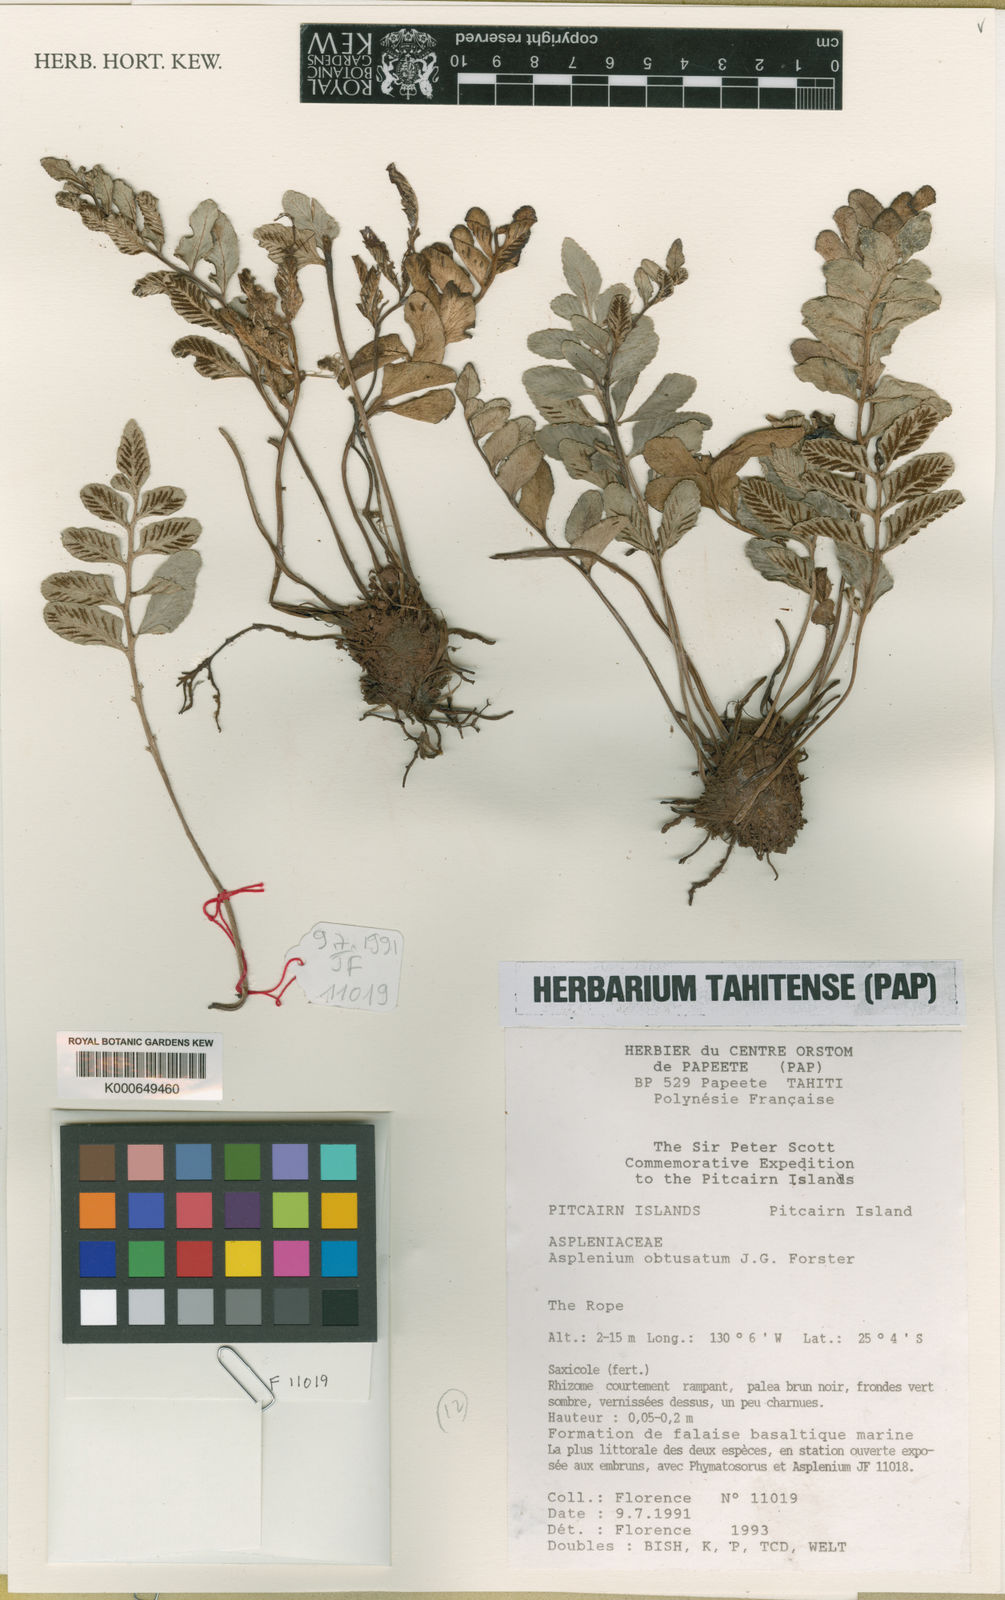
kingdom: Plantae
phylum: Tracheophyta
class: Polypodiopsida
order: Polypodiales
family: Aspleniaceae
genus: Asplenium
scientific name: Asplenium obtusatum
